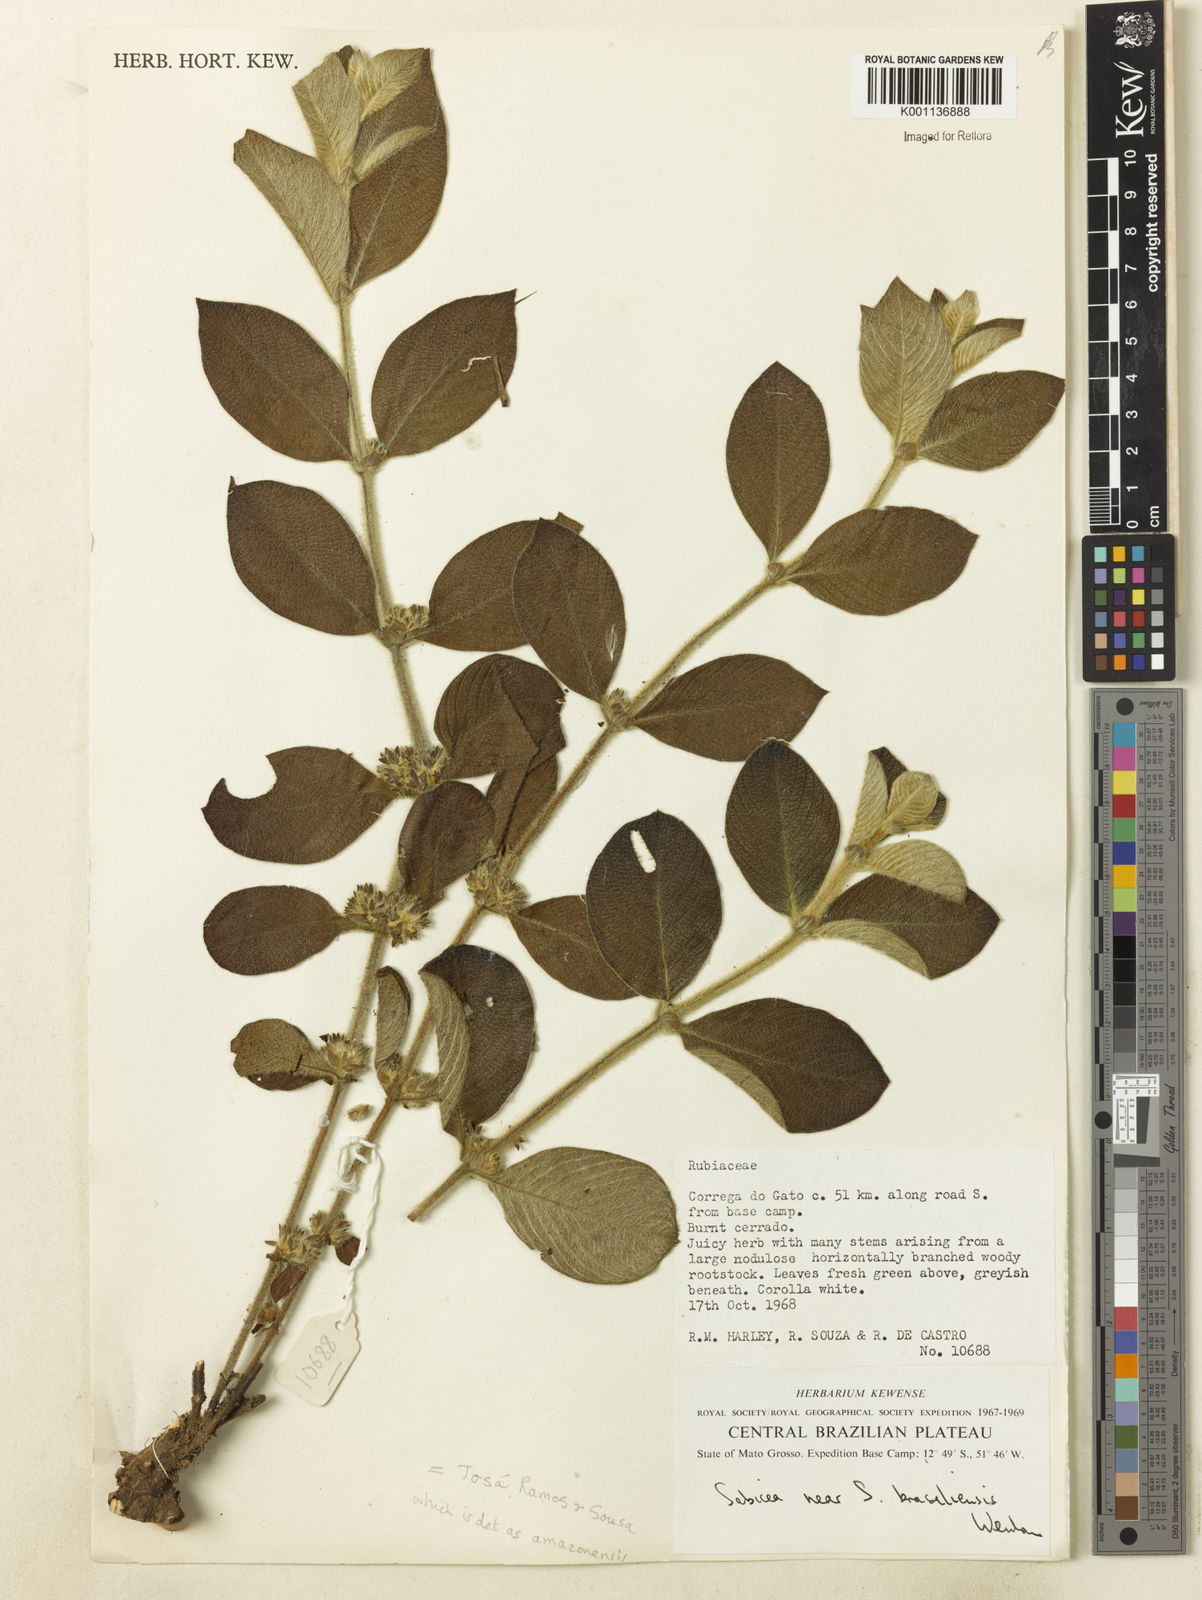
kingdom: Plantae
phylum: Tracheophyta
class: Magnoliopsida
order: Gentianales
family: Rubiaceae
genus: Sabicea
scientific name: Sabicea amazonensis
